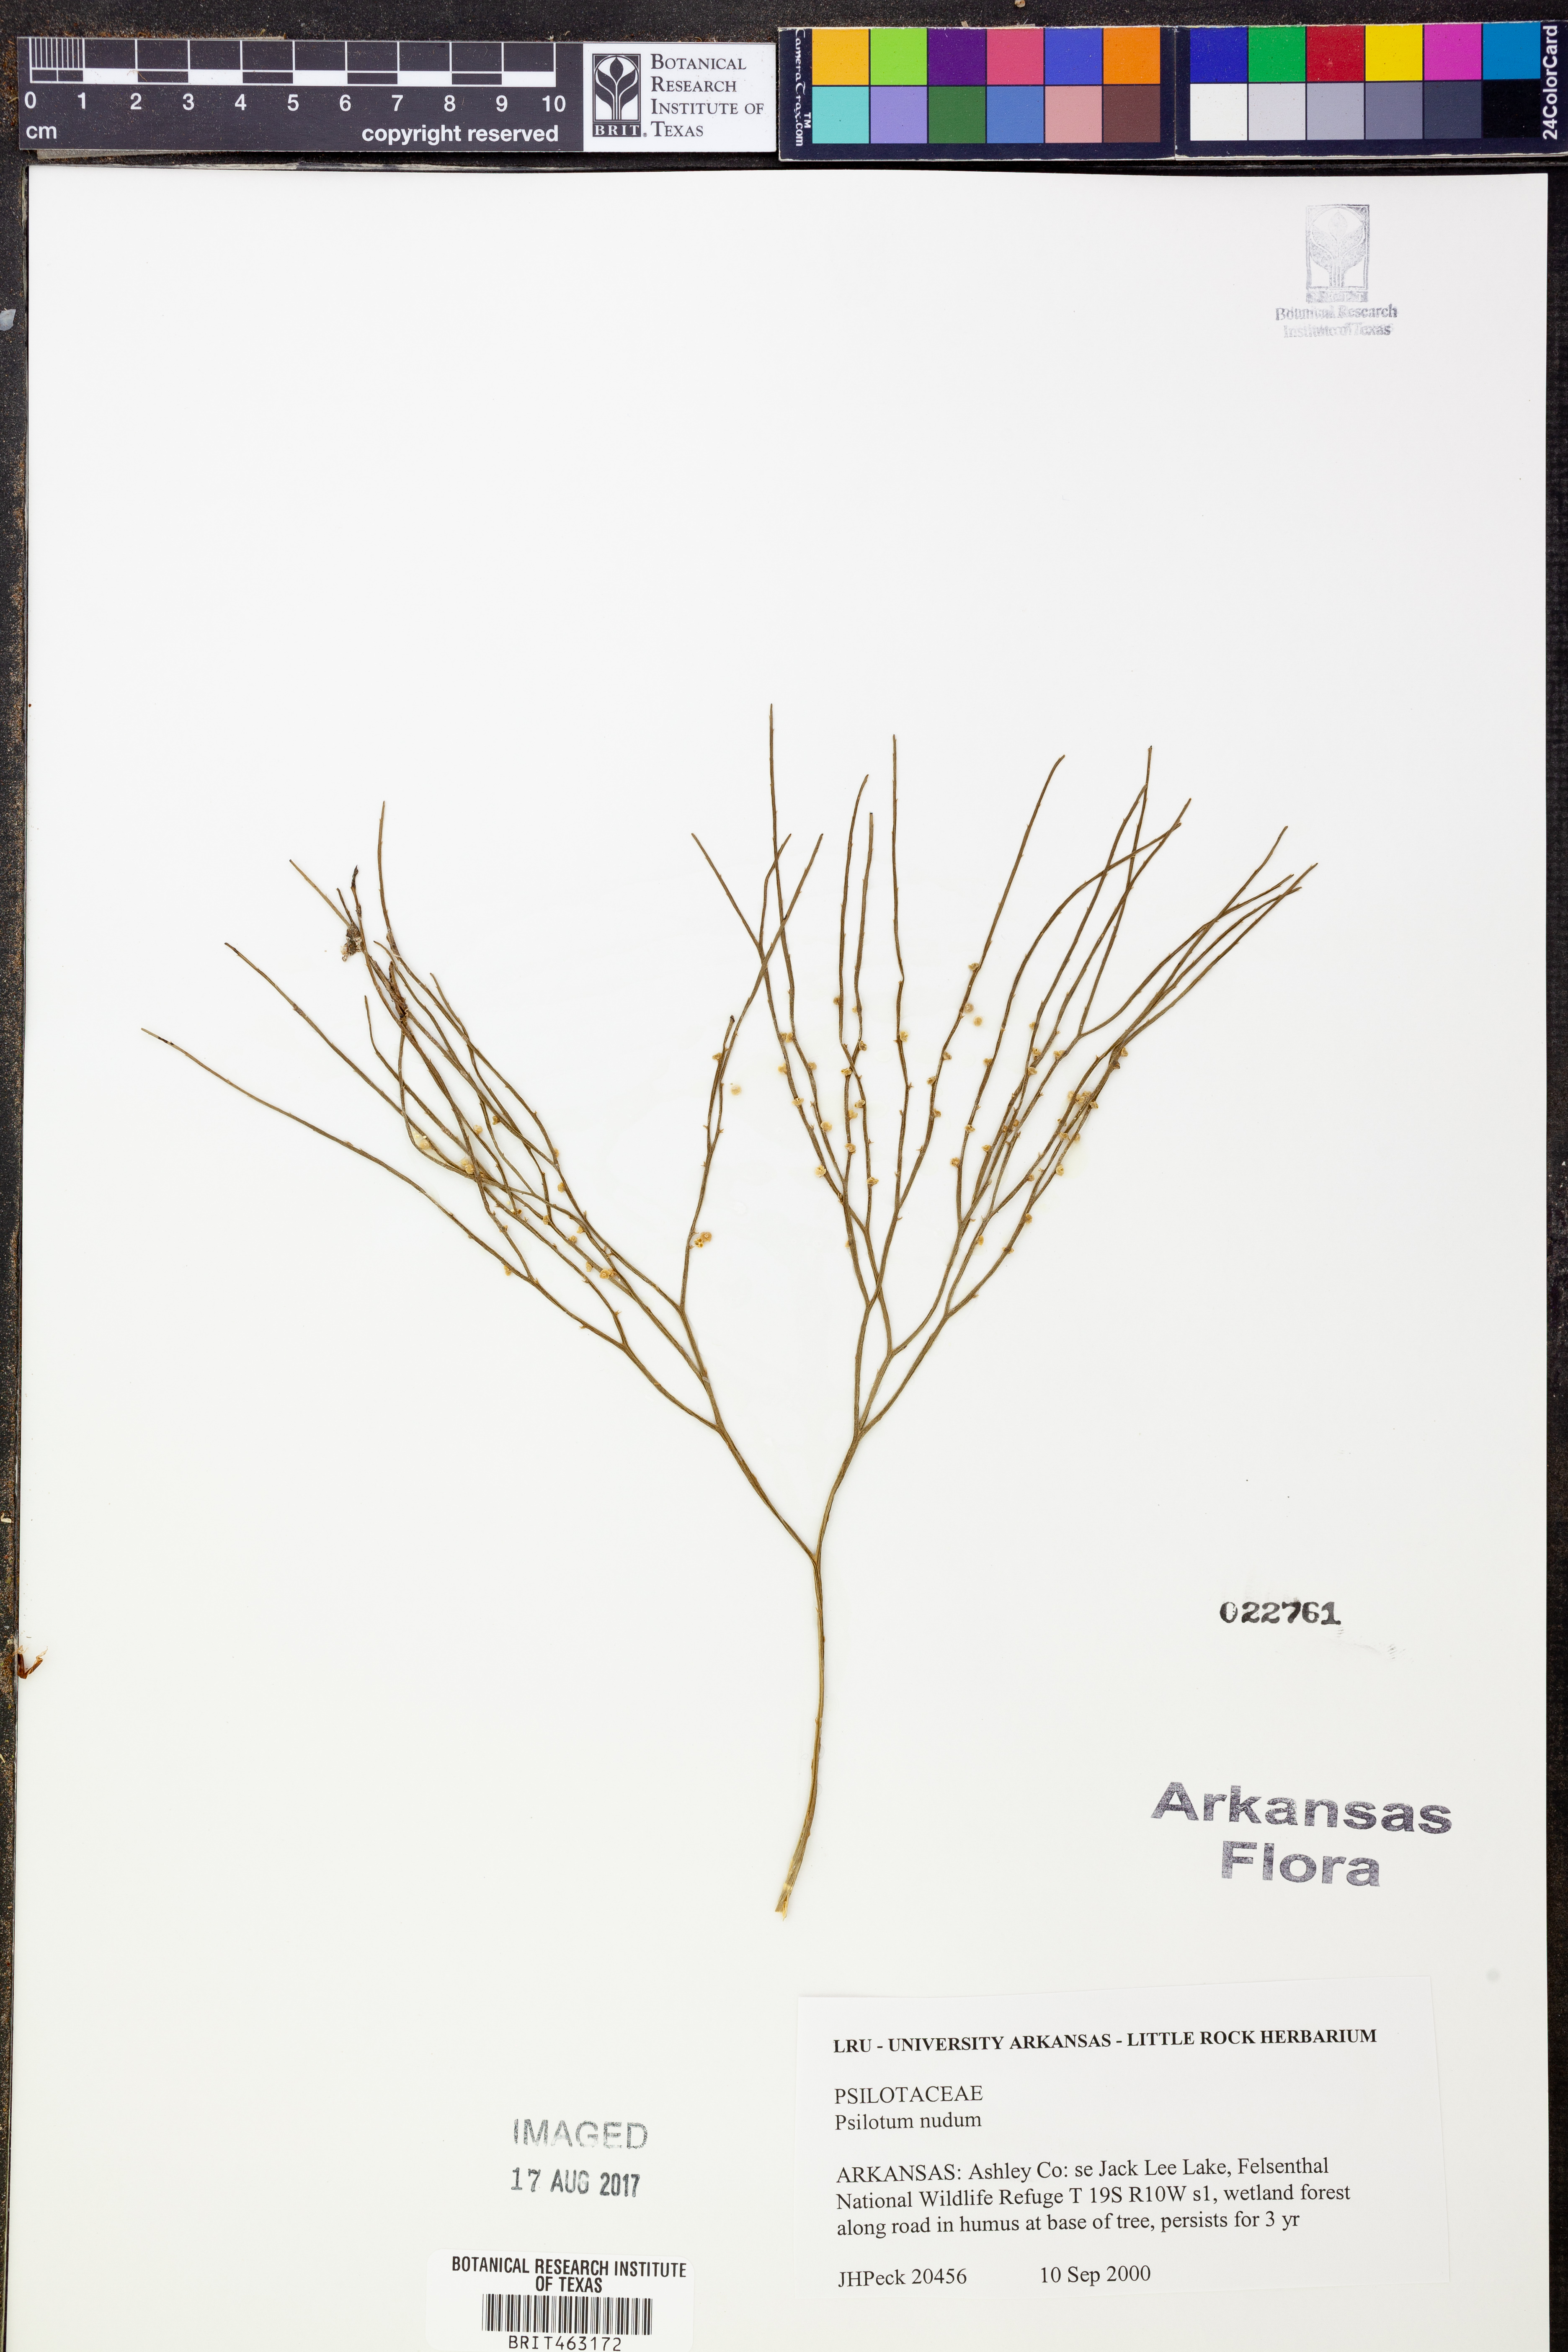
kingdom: Plantae
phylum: Tracheophyta
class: Polypodiopsida
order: Psilotales
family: Psilotaceae
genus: Psilotum
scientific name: Psilotum nudum
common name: Skeleton fork fern
